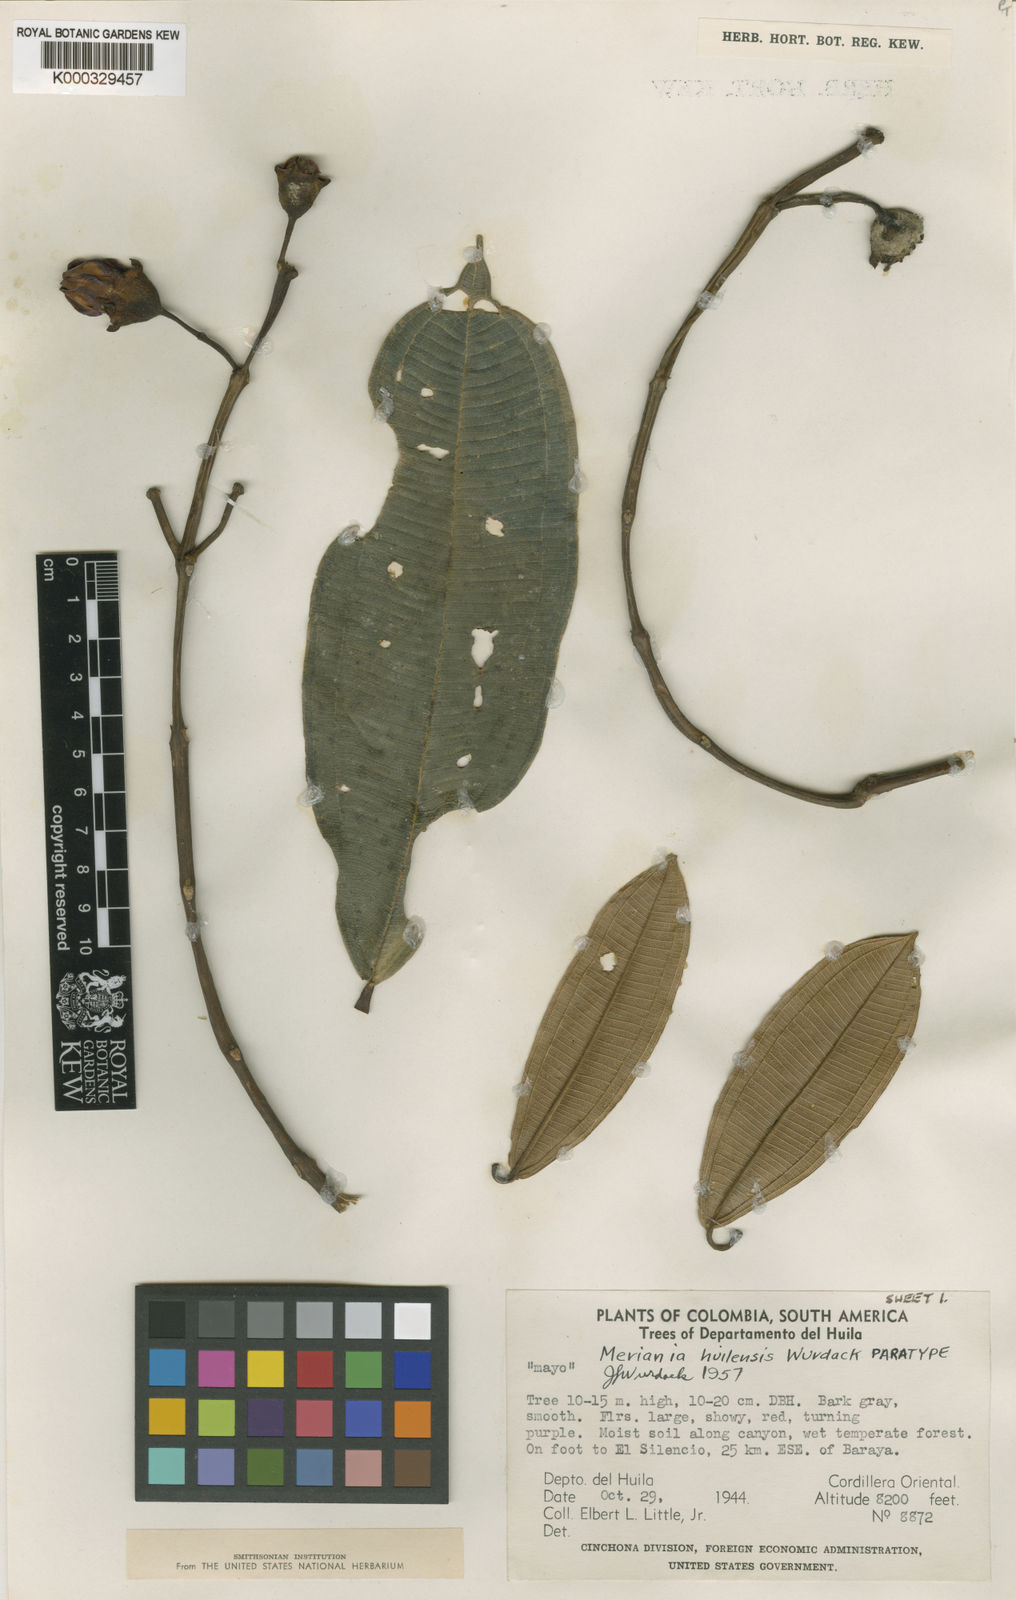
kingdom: Plantae
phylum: Tracheophyta
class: Magnoliopsida
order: Myrtales
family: Melastomataceae
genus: Meriania
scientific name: Meriania huilensis
